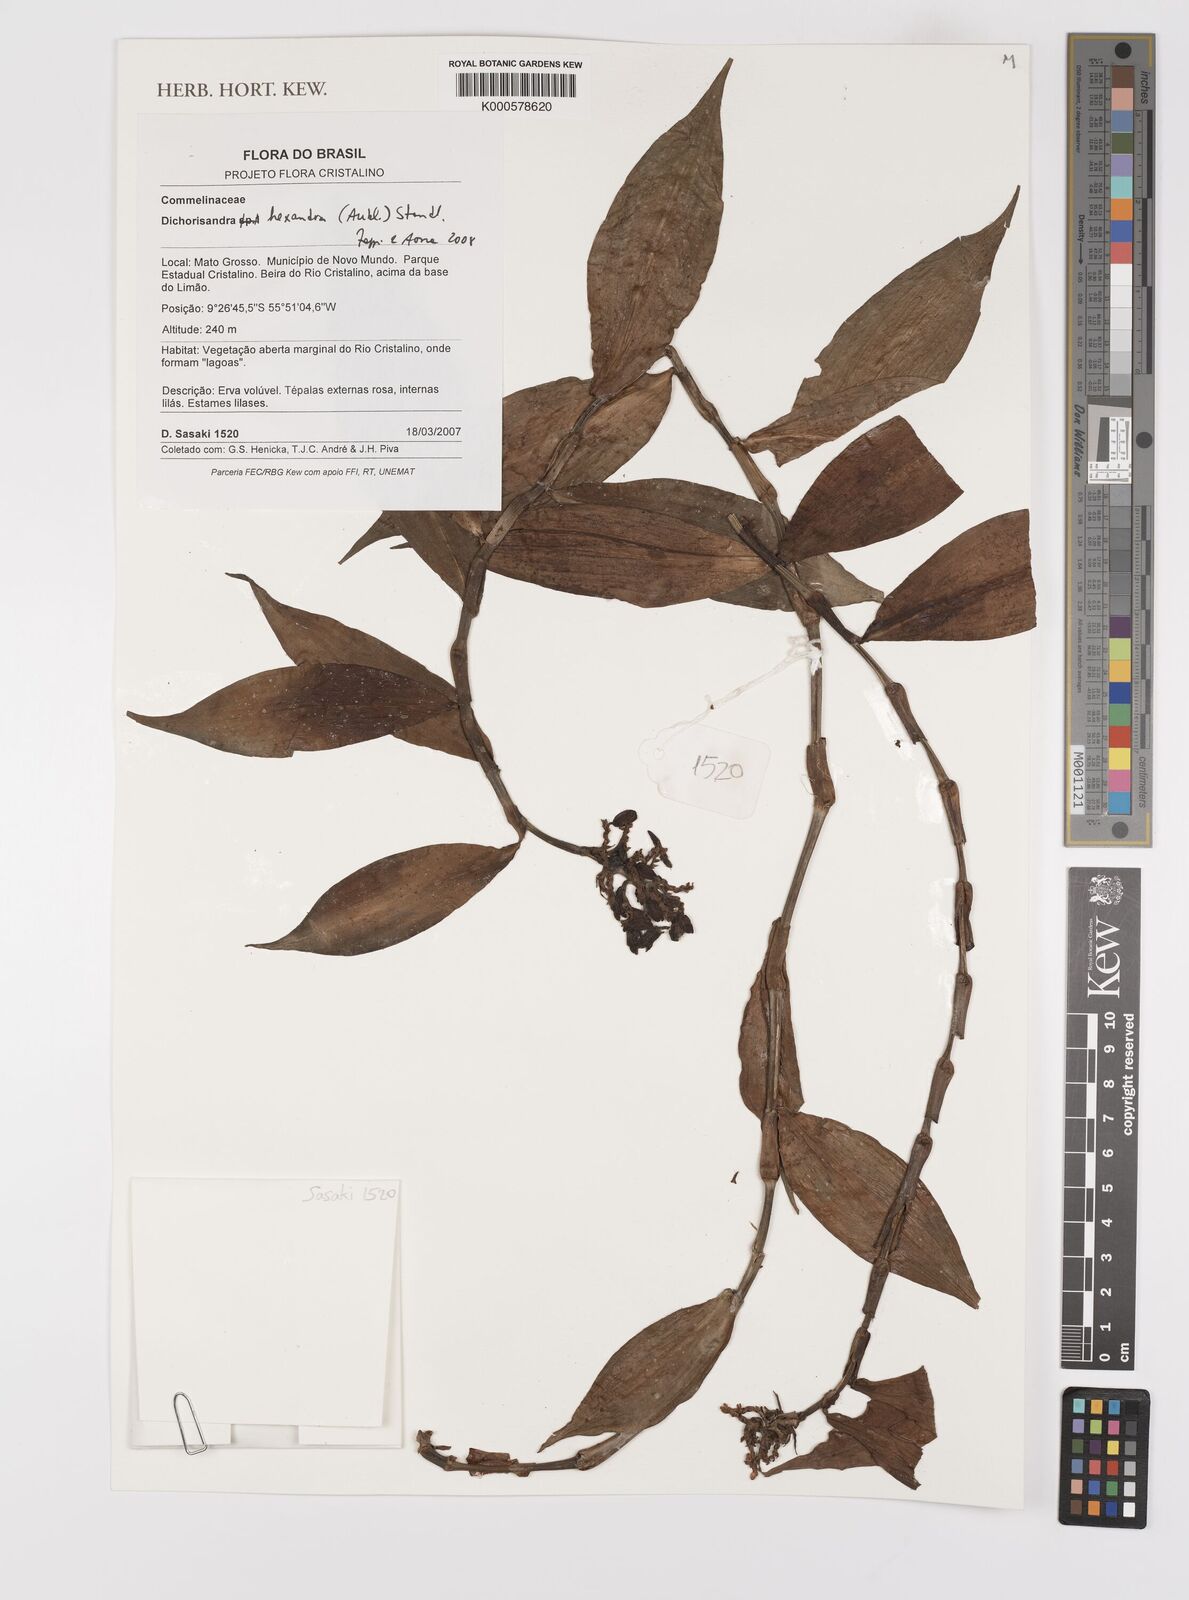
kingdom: Plantae
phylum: Tracheophyta
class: Liliopsida
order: Commelinales
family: Commelinaceae
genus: Dichorisandra
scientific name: Dichorisandra
